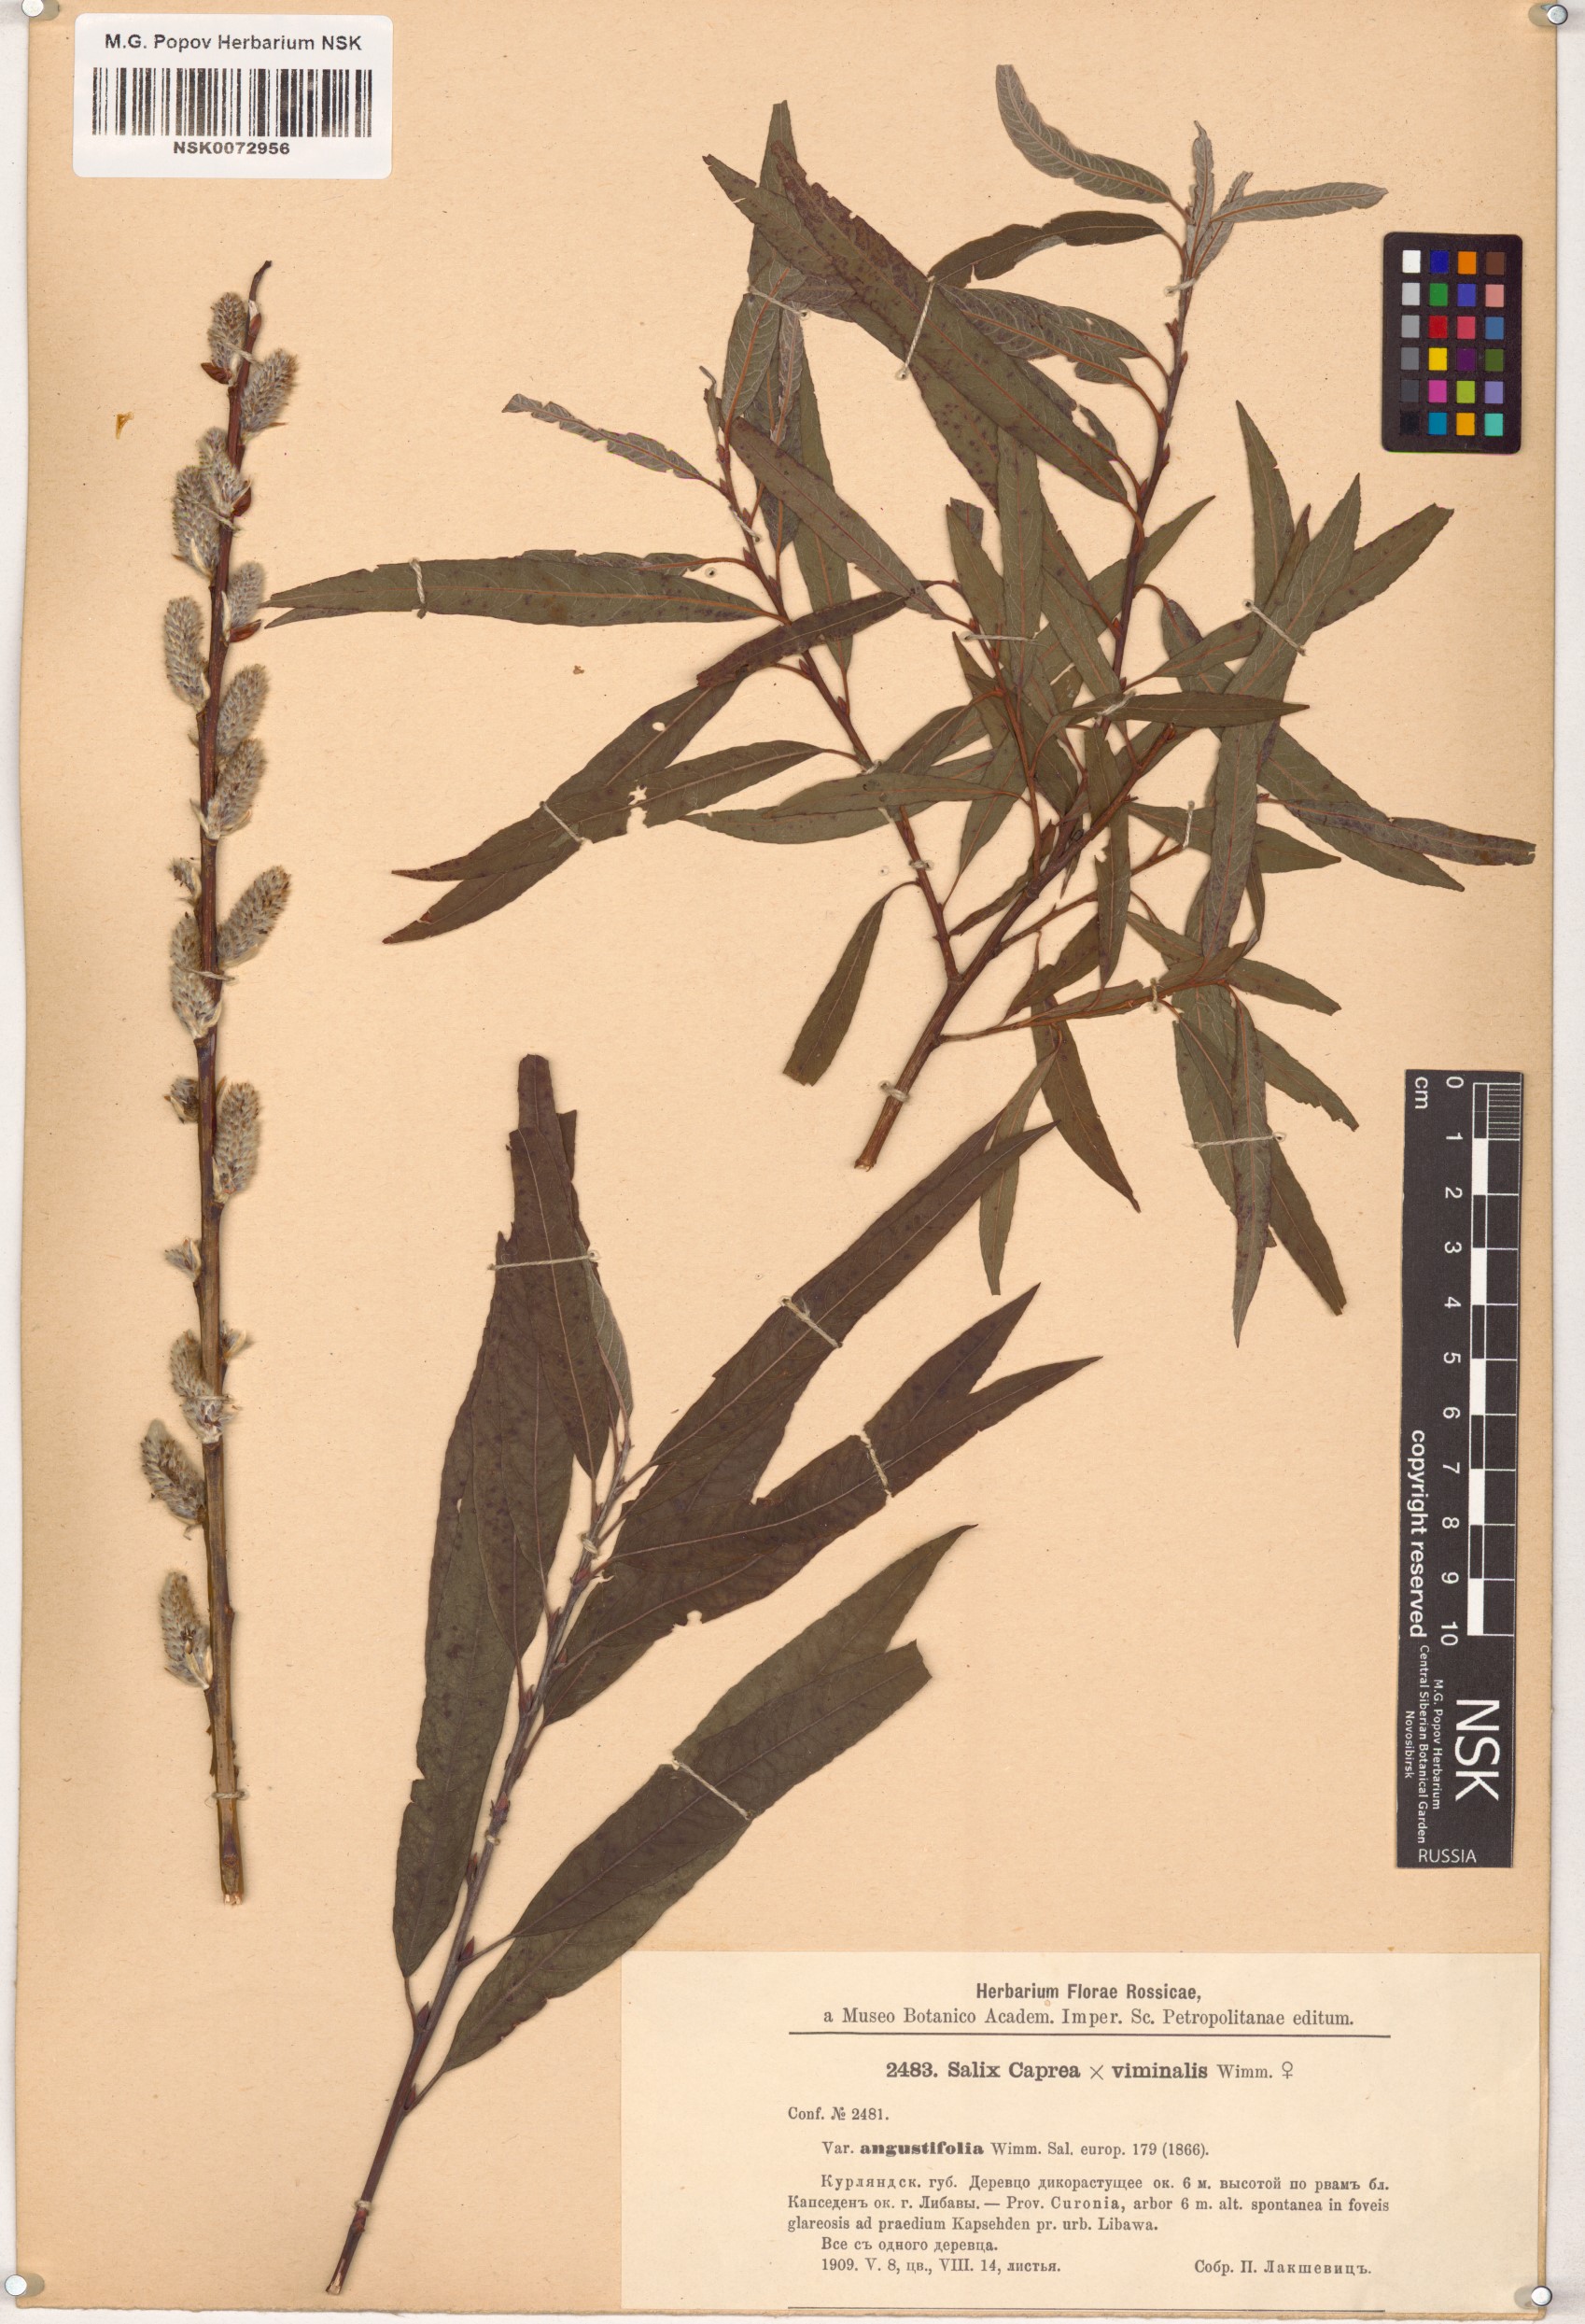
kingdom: Plantae
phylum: Tracheophyta
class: Magnoliopsida
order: Malpighiales
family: Salicaceae
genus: Salix
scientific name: Salix
